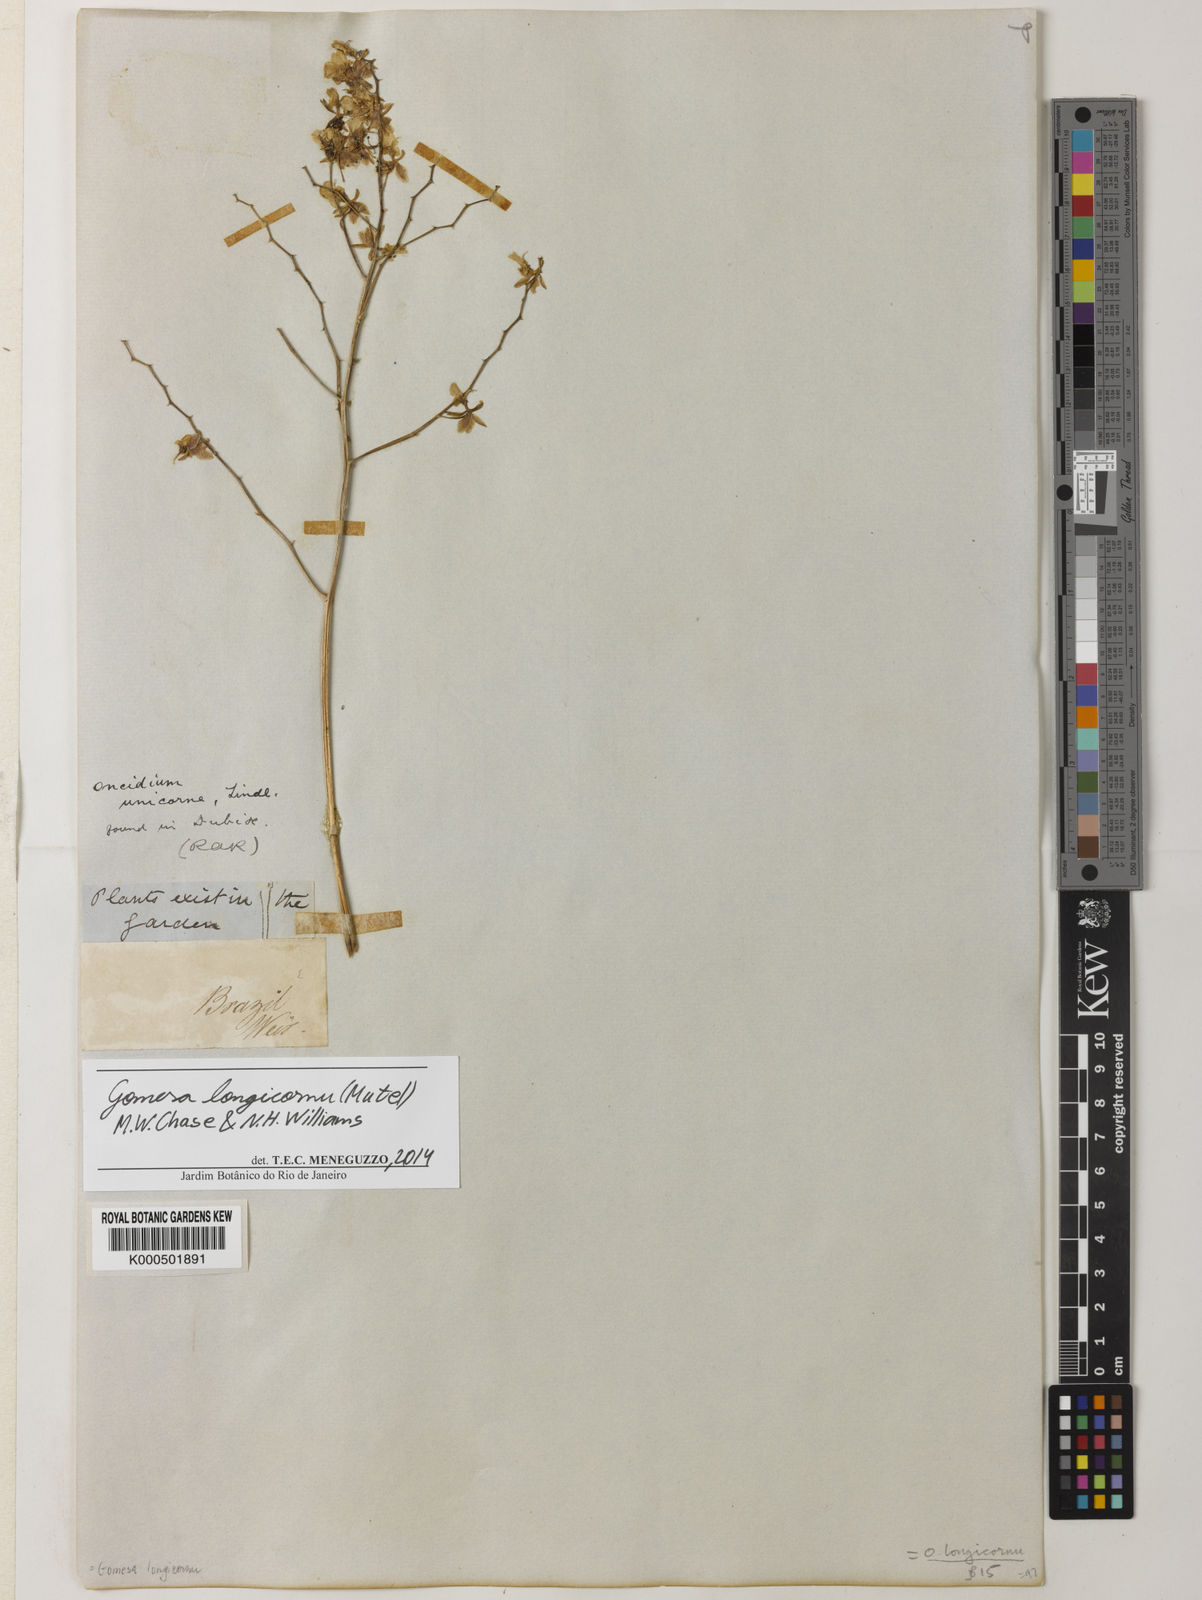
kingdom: Plantae
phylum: Tracheophyta
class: Liliopsida
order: Asparagales
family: Orchidaceae
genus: Gomesa
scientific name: Gomesa florida
